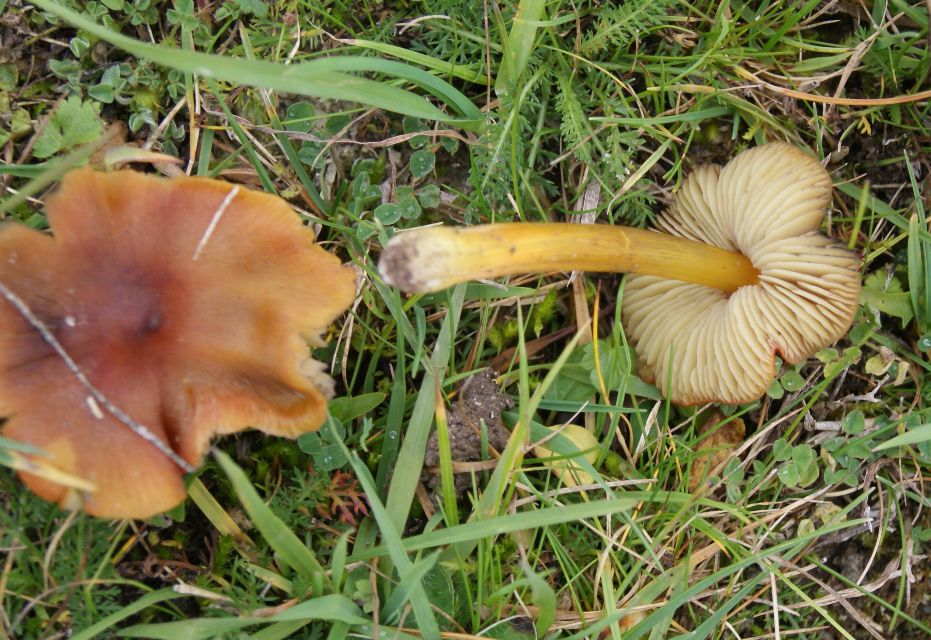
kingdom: Fungi
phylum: Basidiomycota
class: Agaricomycetes
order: Agaricales
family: Hygrophoraceae
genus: Hygrocybe
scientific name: Hygrocybe conica
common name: kegle-vokshat
